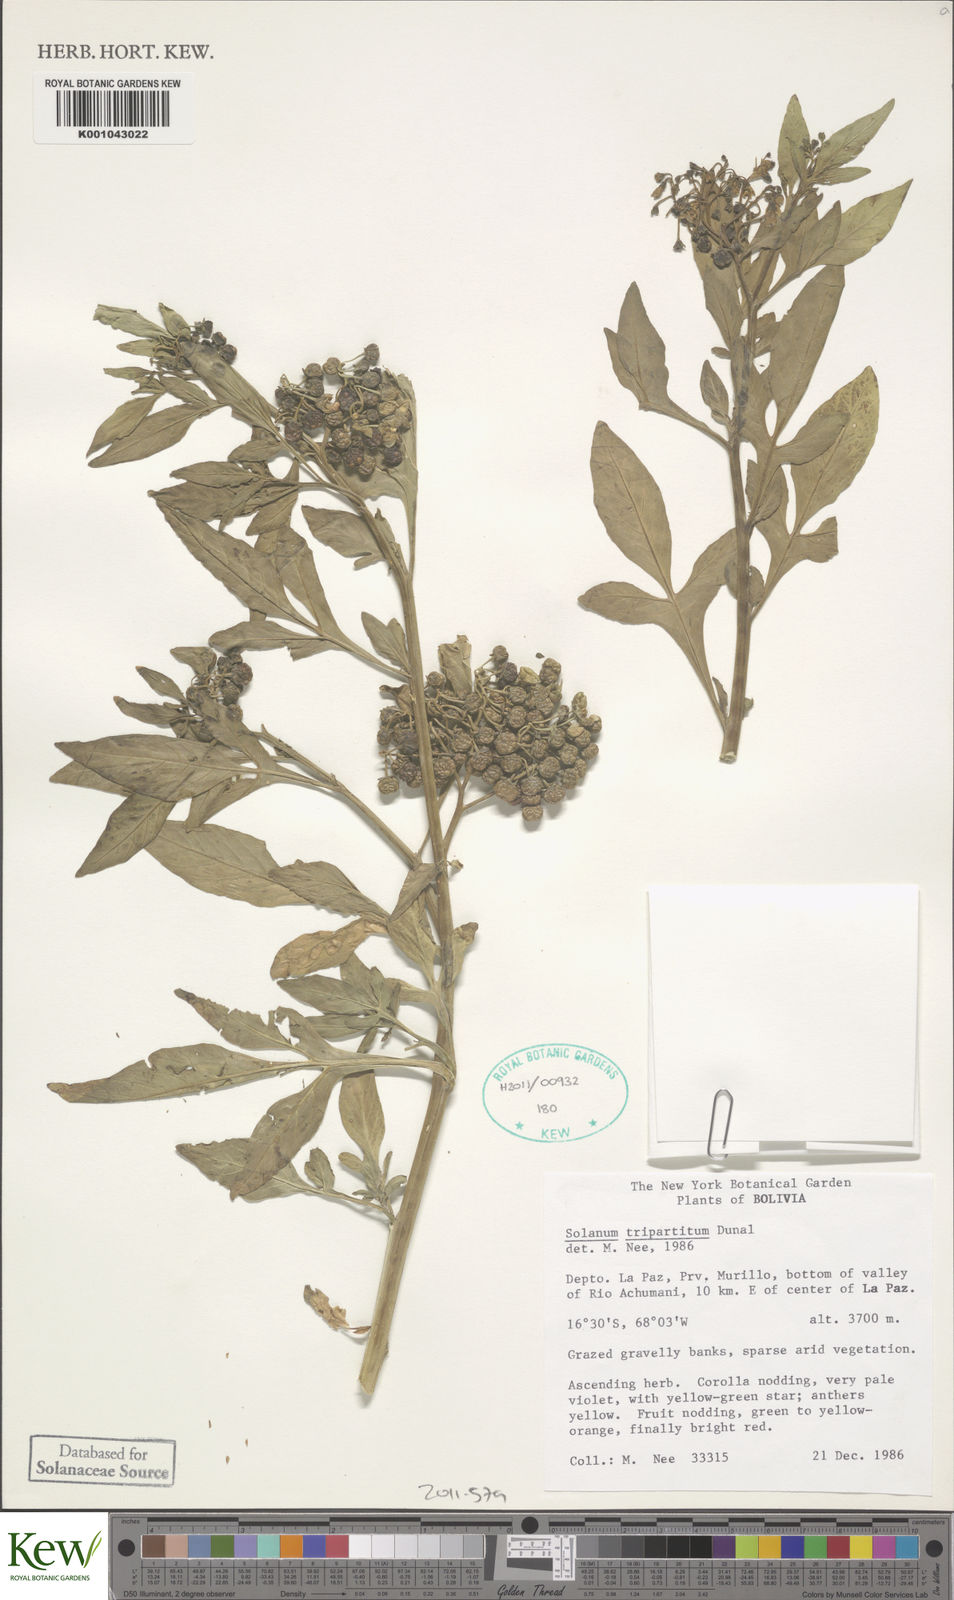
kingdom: Plantae
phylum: Tracheophyta
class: Magnoliopsida
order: Solanales
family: Solanaceae
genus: Solanum
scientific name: Solanum tripartitum
